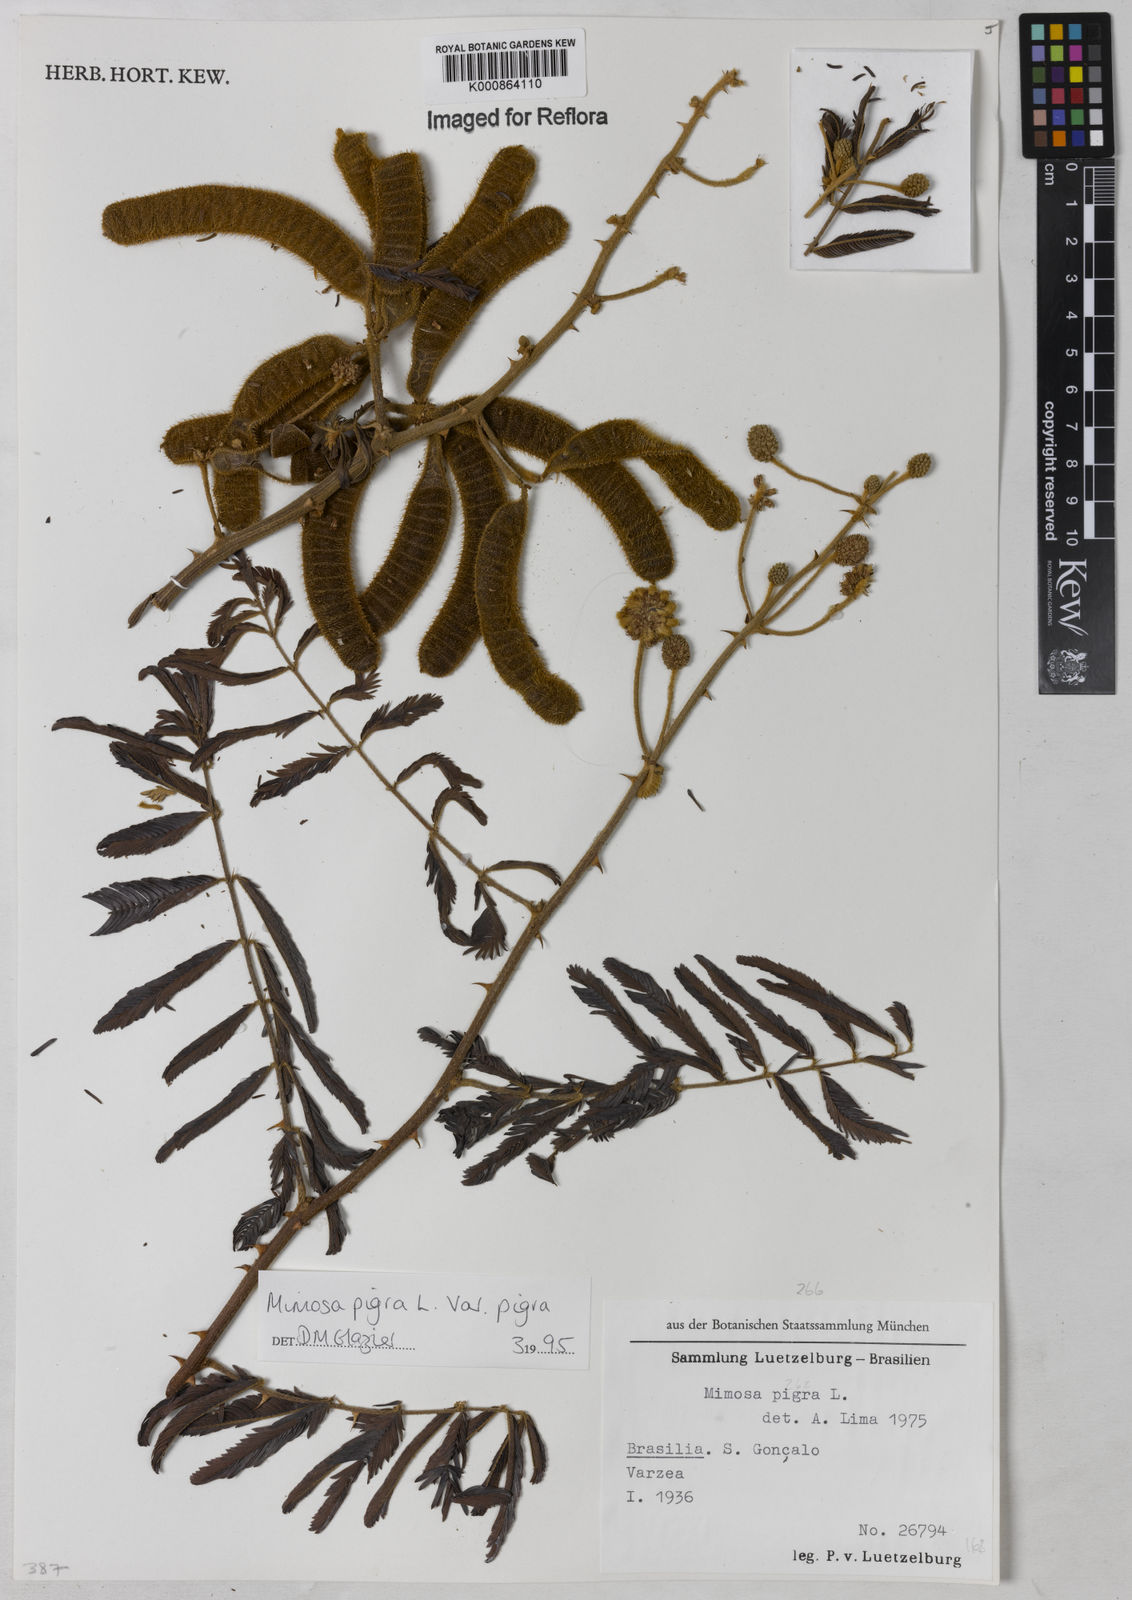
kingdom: Plantae
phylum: Tracheophyta
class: Magnoliopsida
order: Fabales
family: Fabaceae
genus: Mimosa
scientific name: Mimosa pigra
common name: Black mimosa
